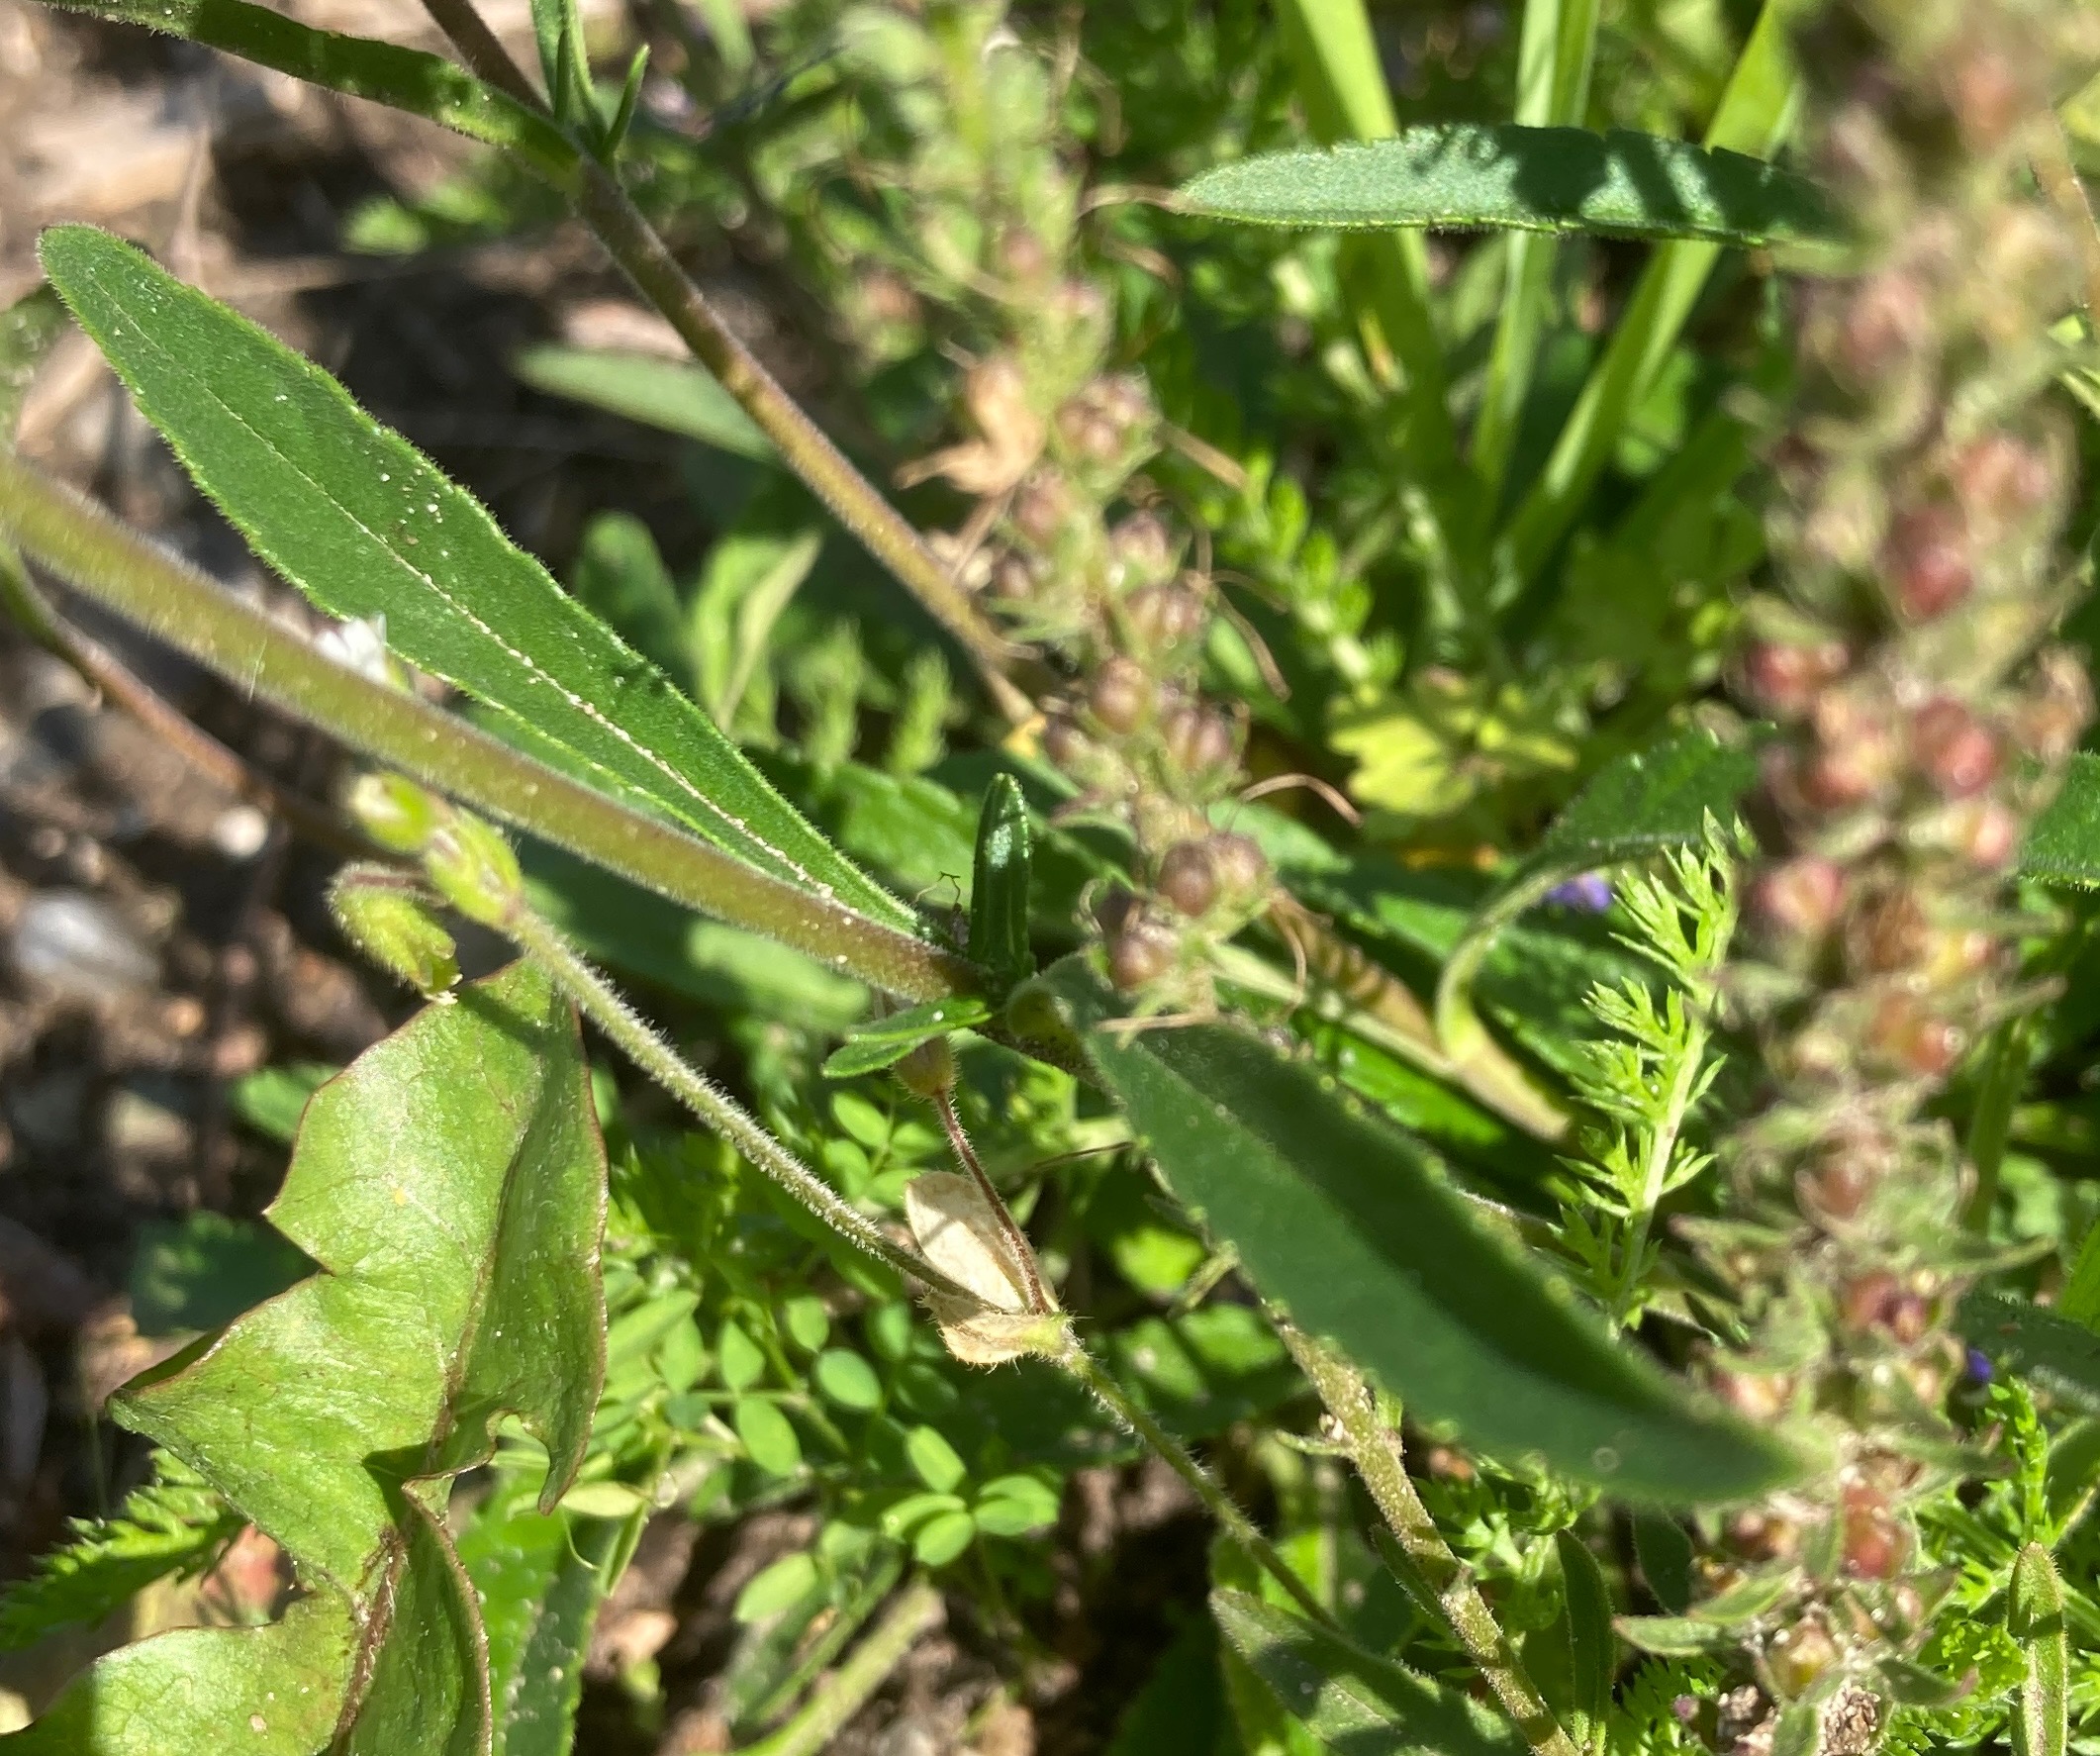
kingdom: Plantae
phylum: Tracheophyta
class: Magnoliopsida
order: Lamiales
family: Plantaginaceae
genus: Veronica
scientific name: Veronica longifolia
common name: Langbladet ærenpris
